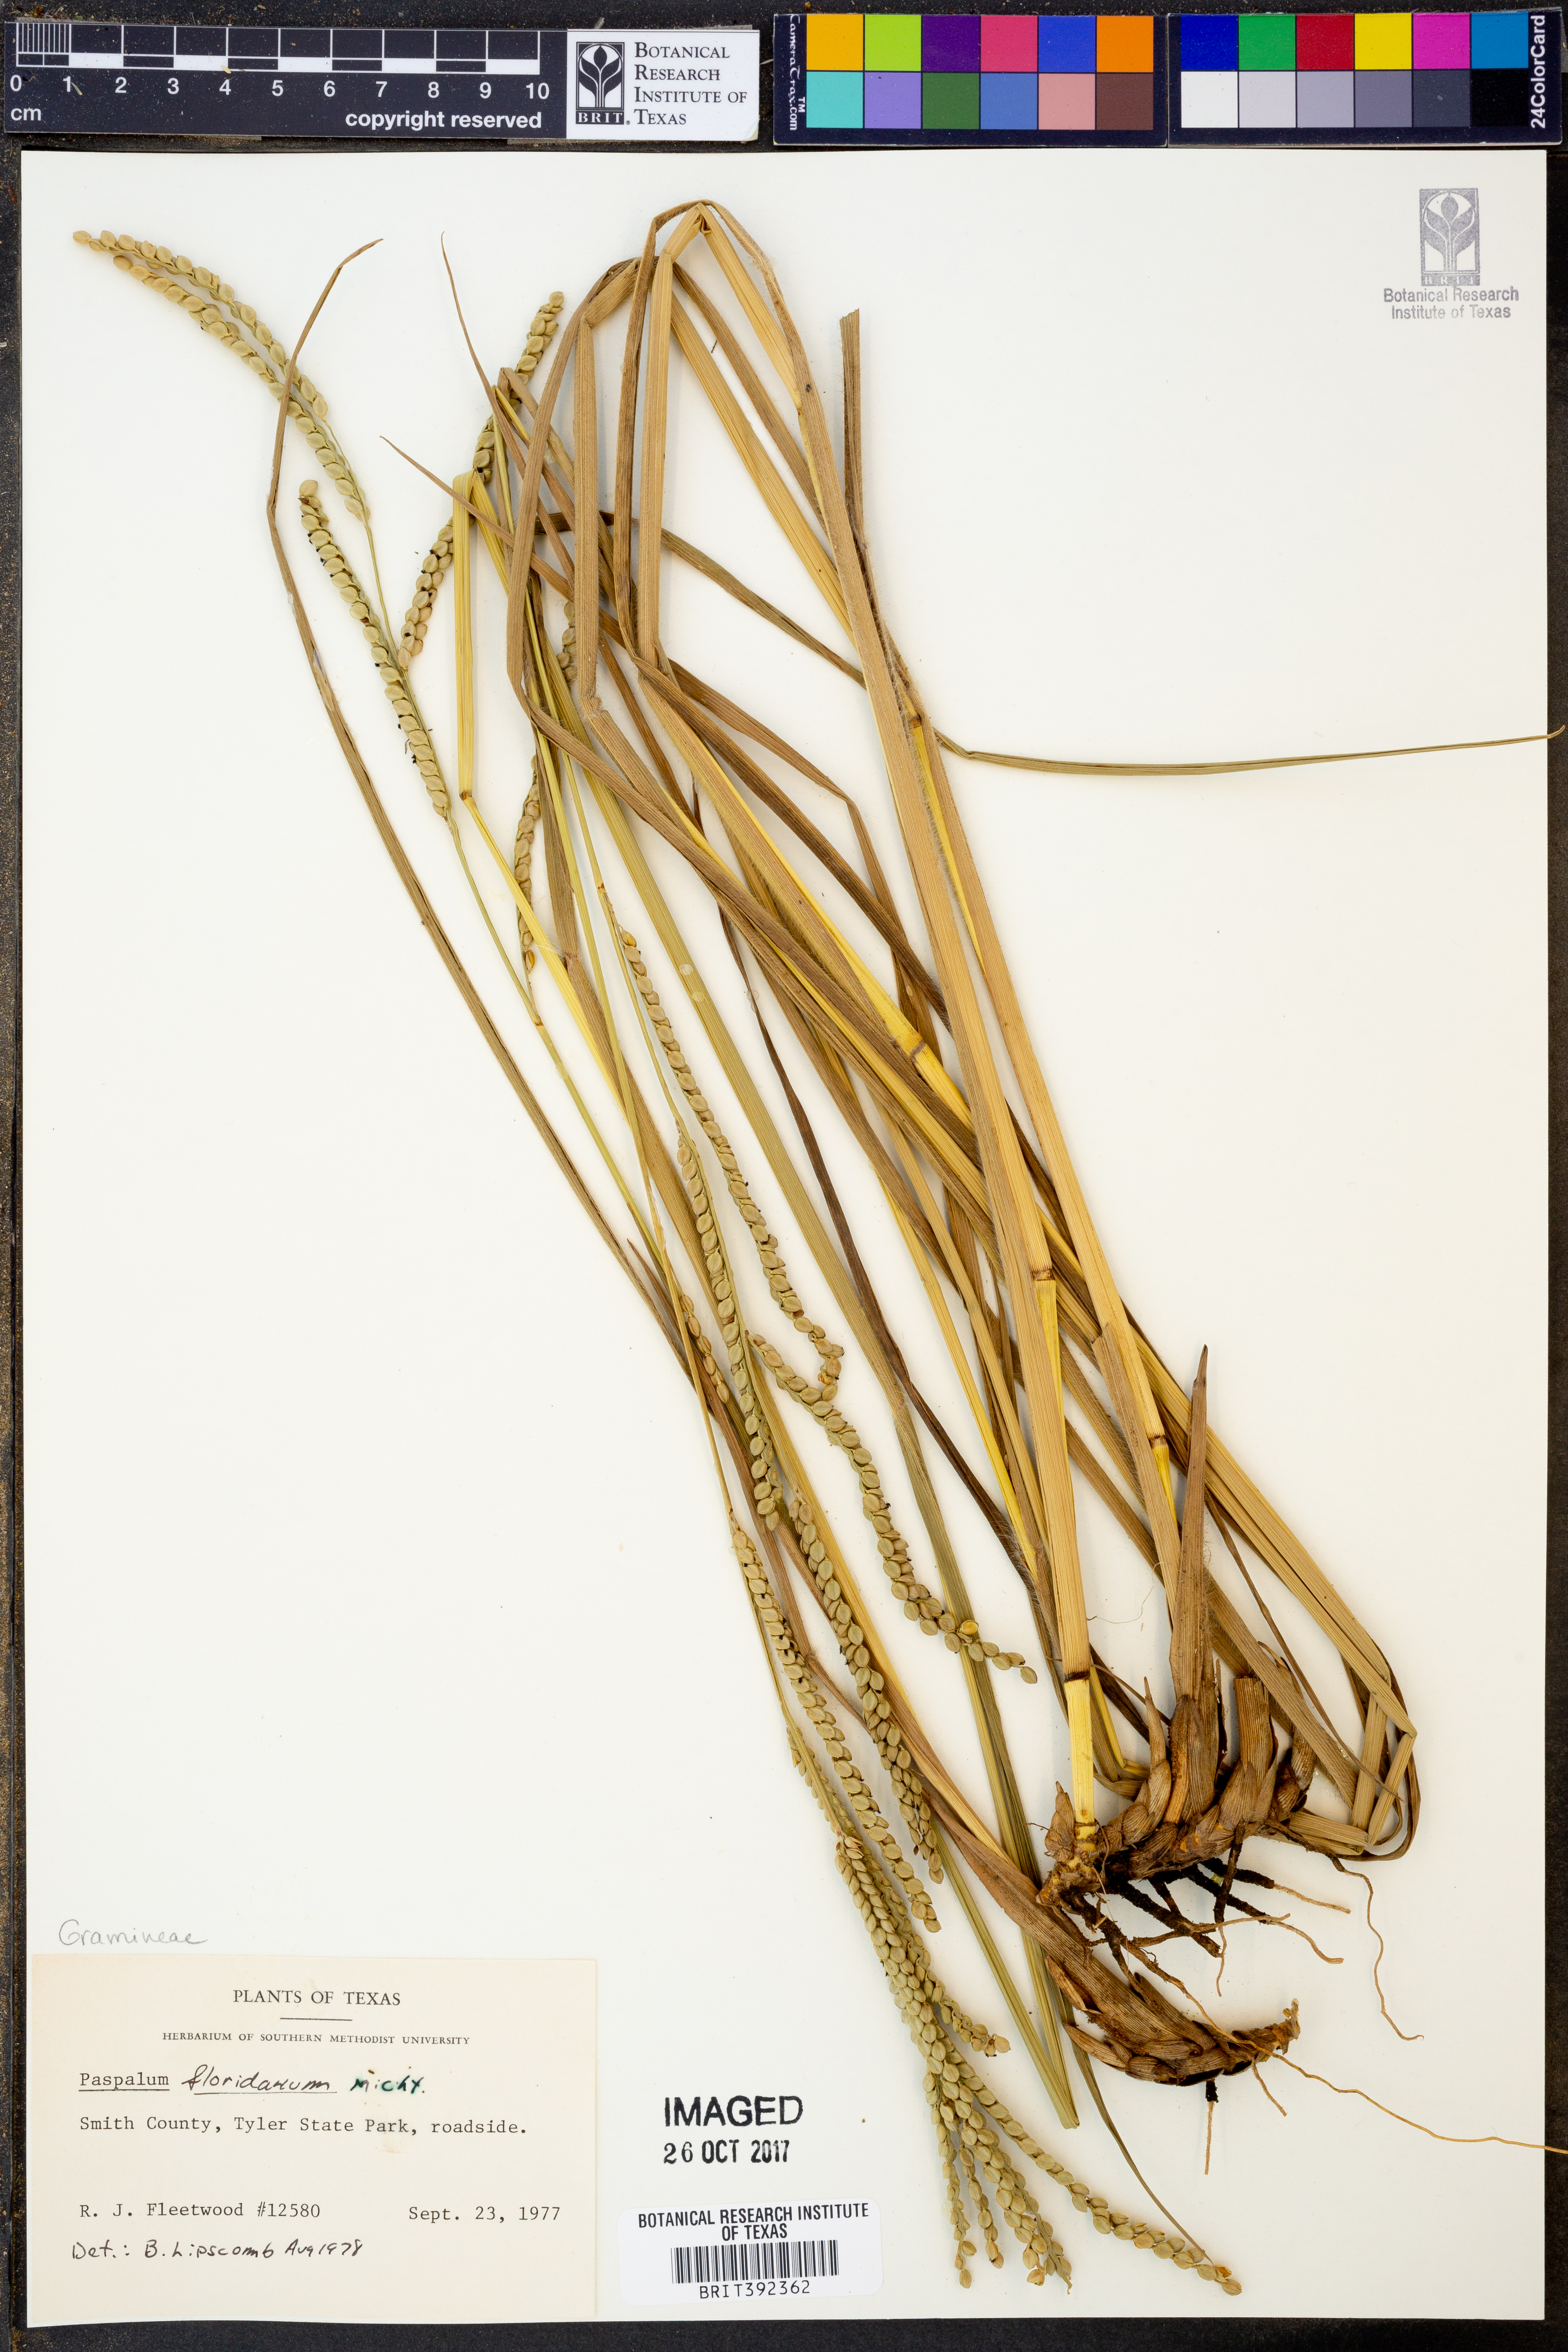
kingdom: Plantae
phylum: Tracheophyta
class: Liliopsida
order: Poales
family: Poaceae
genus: Paspalum
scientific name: Paspalum floridanum
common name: Florida paspalum
